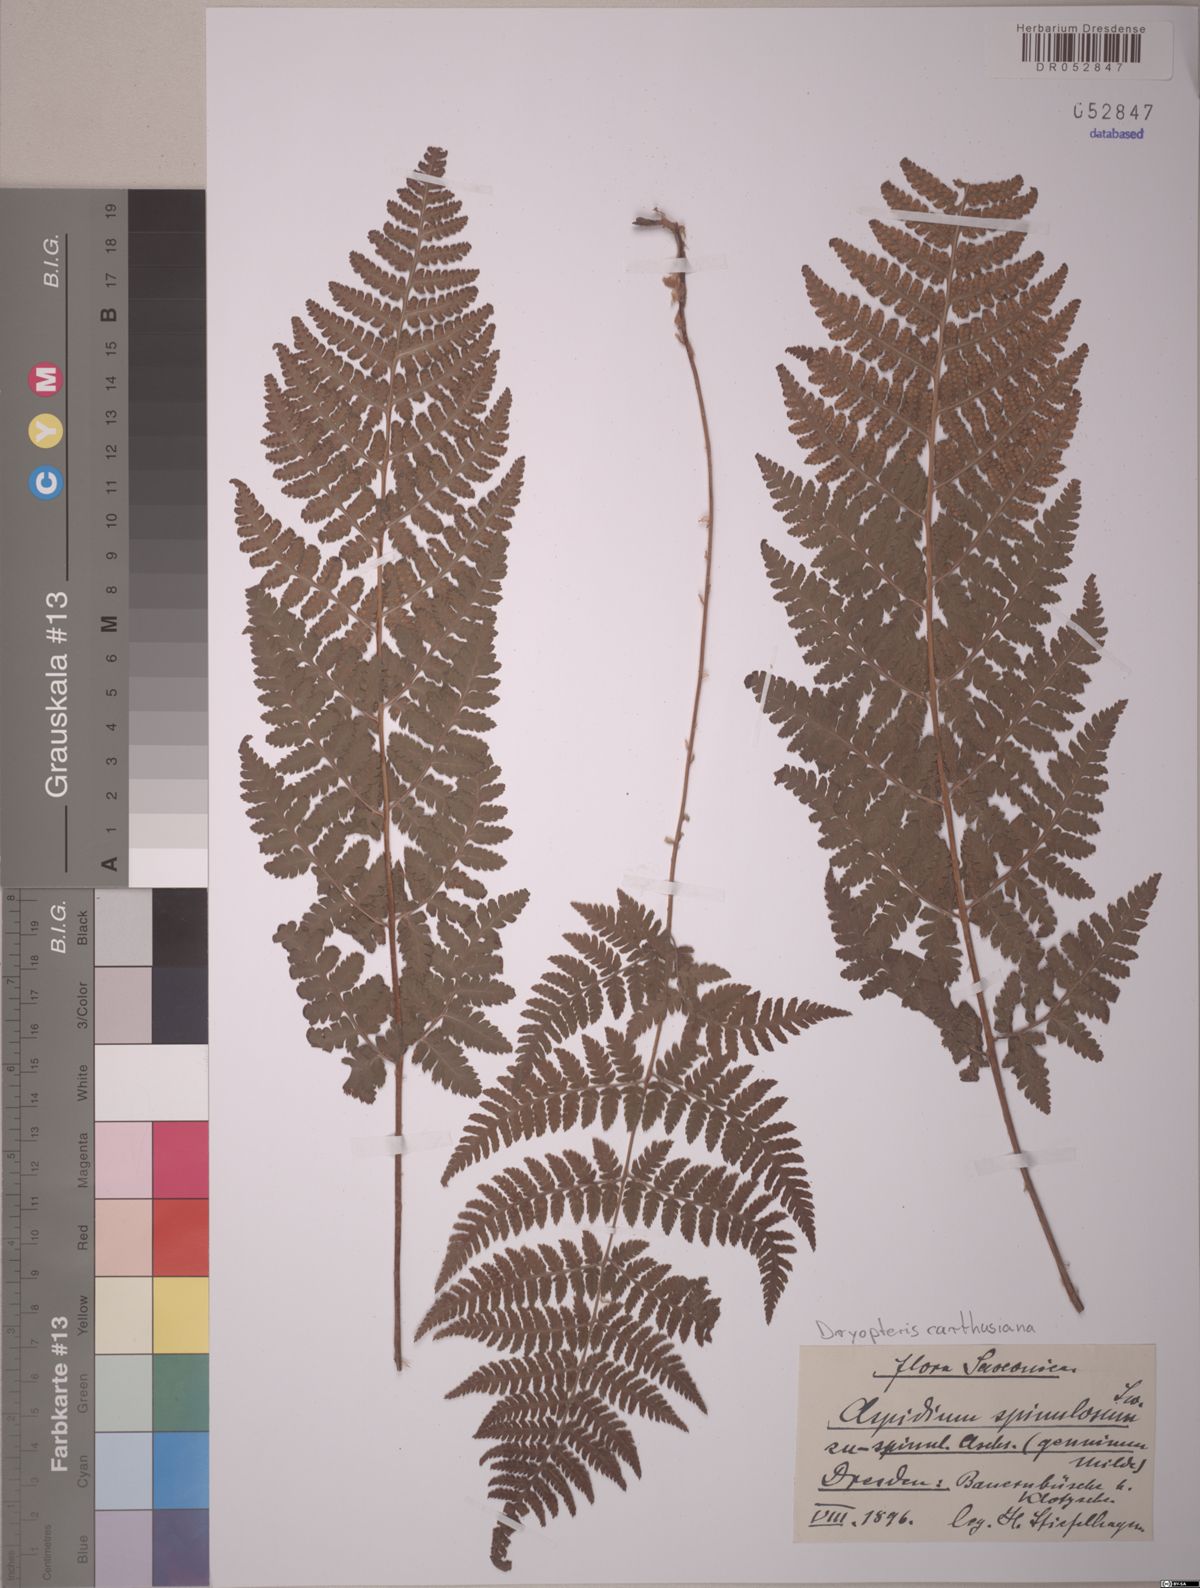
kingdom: Plantae
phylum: Tracheophyta
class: Polypodiopsida
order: Polypodiales
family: Dryopteridaceae
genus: Dryopteris
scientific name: Dryopteris carthusiana
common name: Narrow buckler-fern
